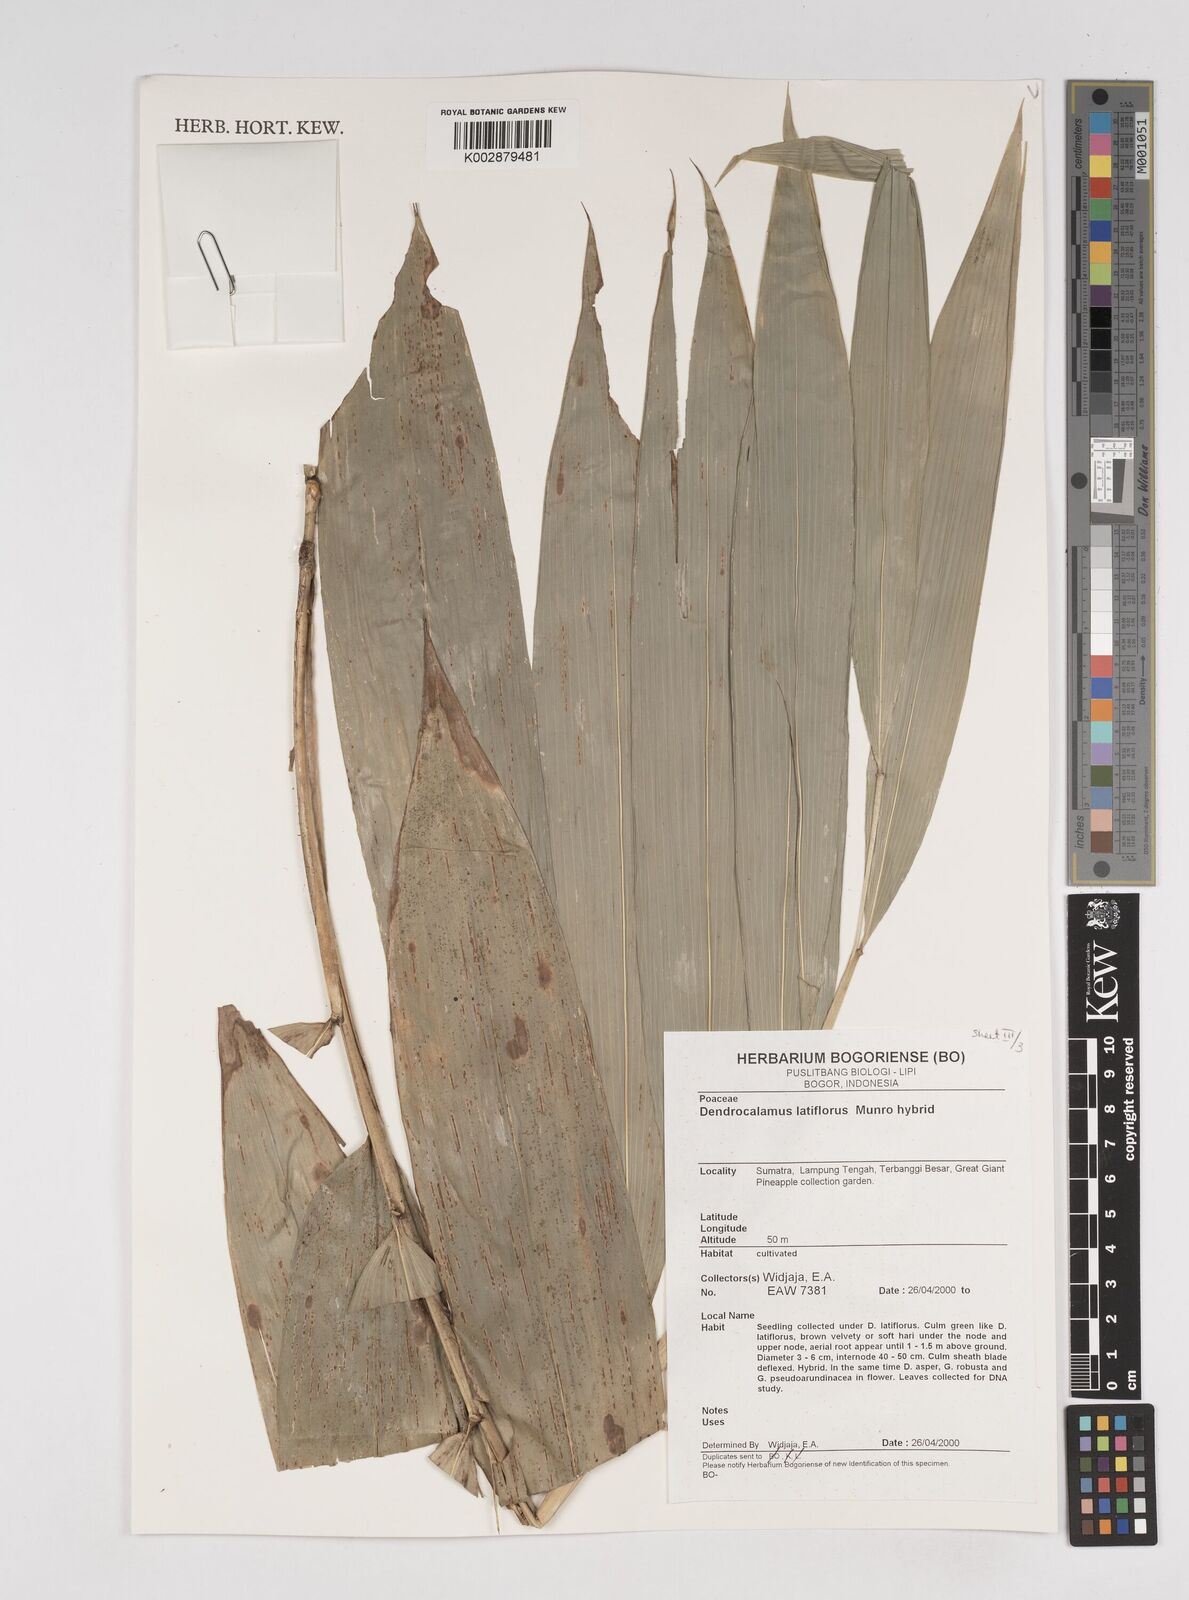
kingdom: Plantae
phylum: Tracheophyta
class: Liliopsida
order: Poales
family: Poaceae
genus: Dendrocalamus
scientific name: Dendrocalamus latiflorus
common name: Giant bamboo
